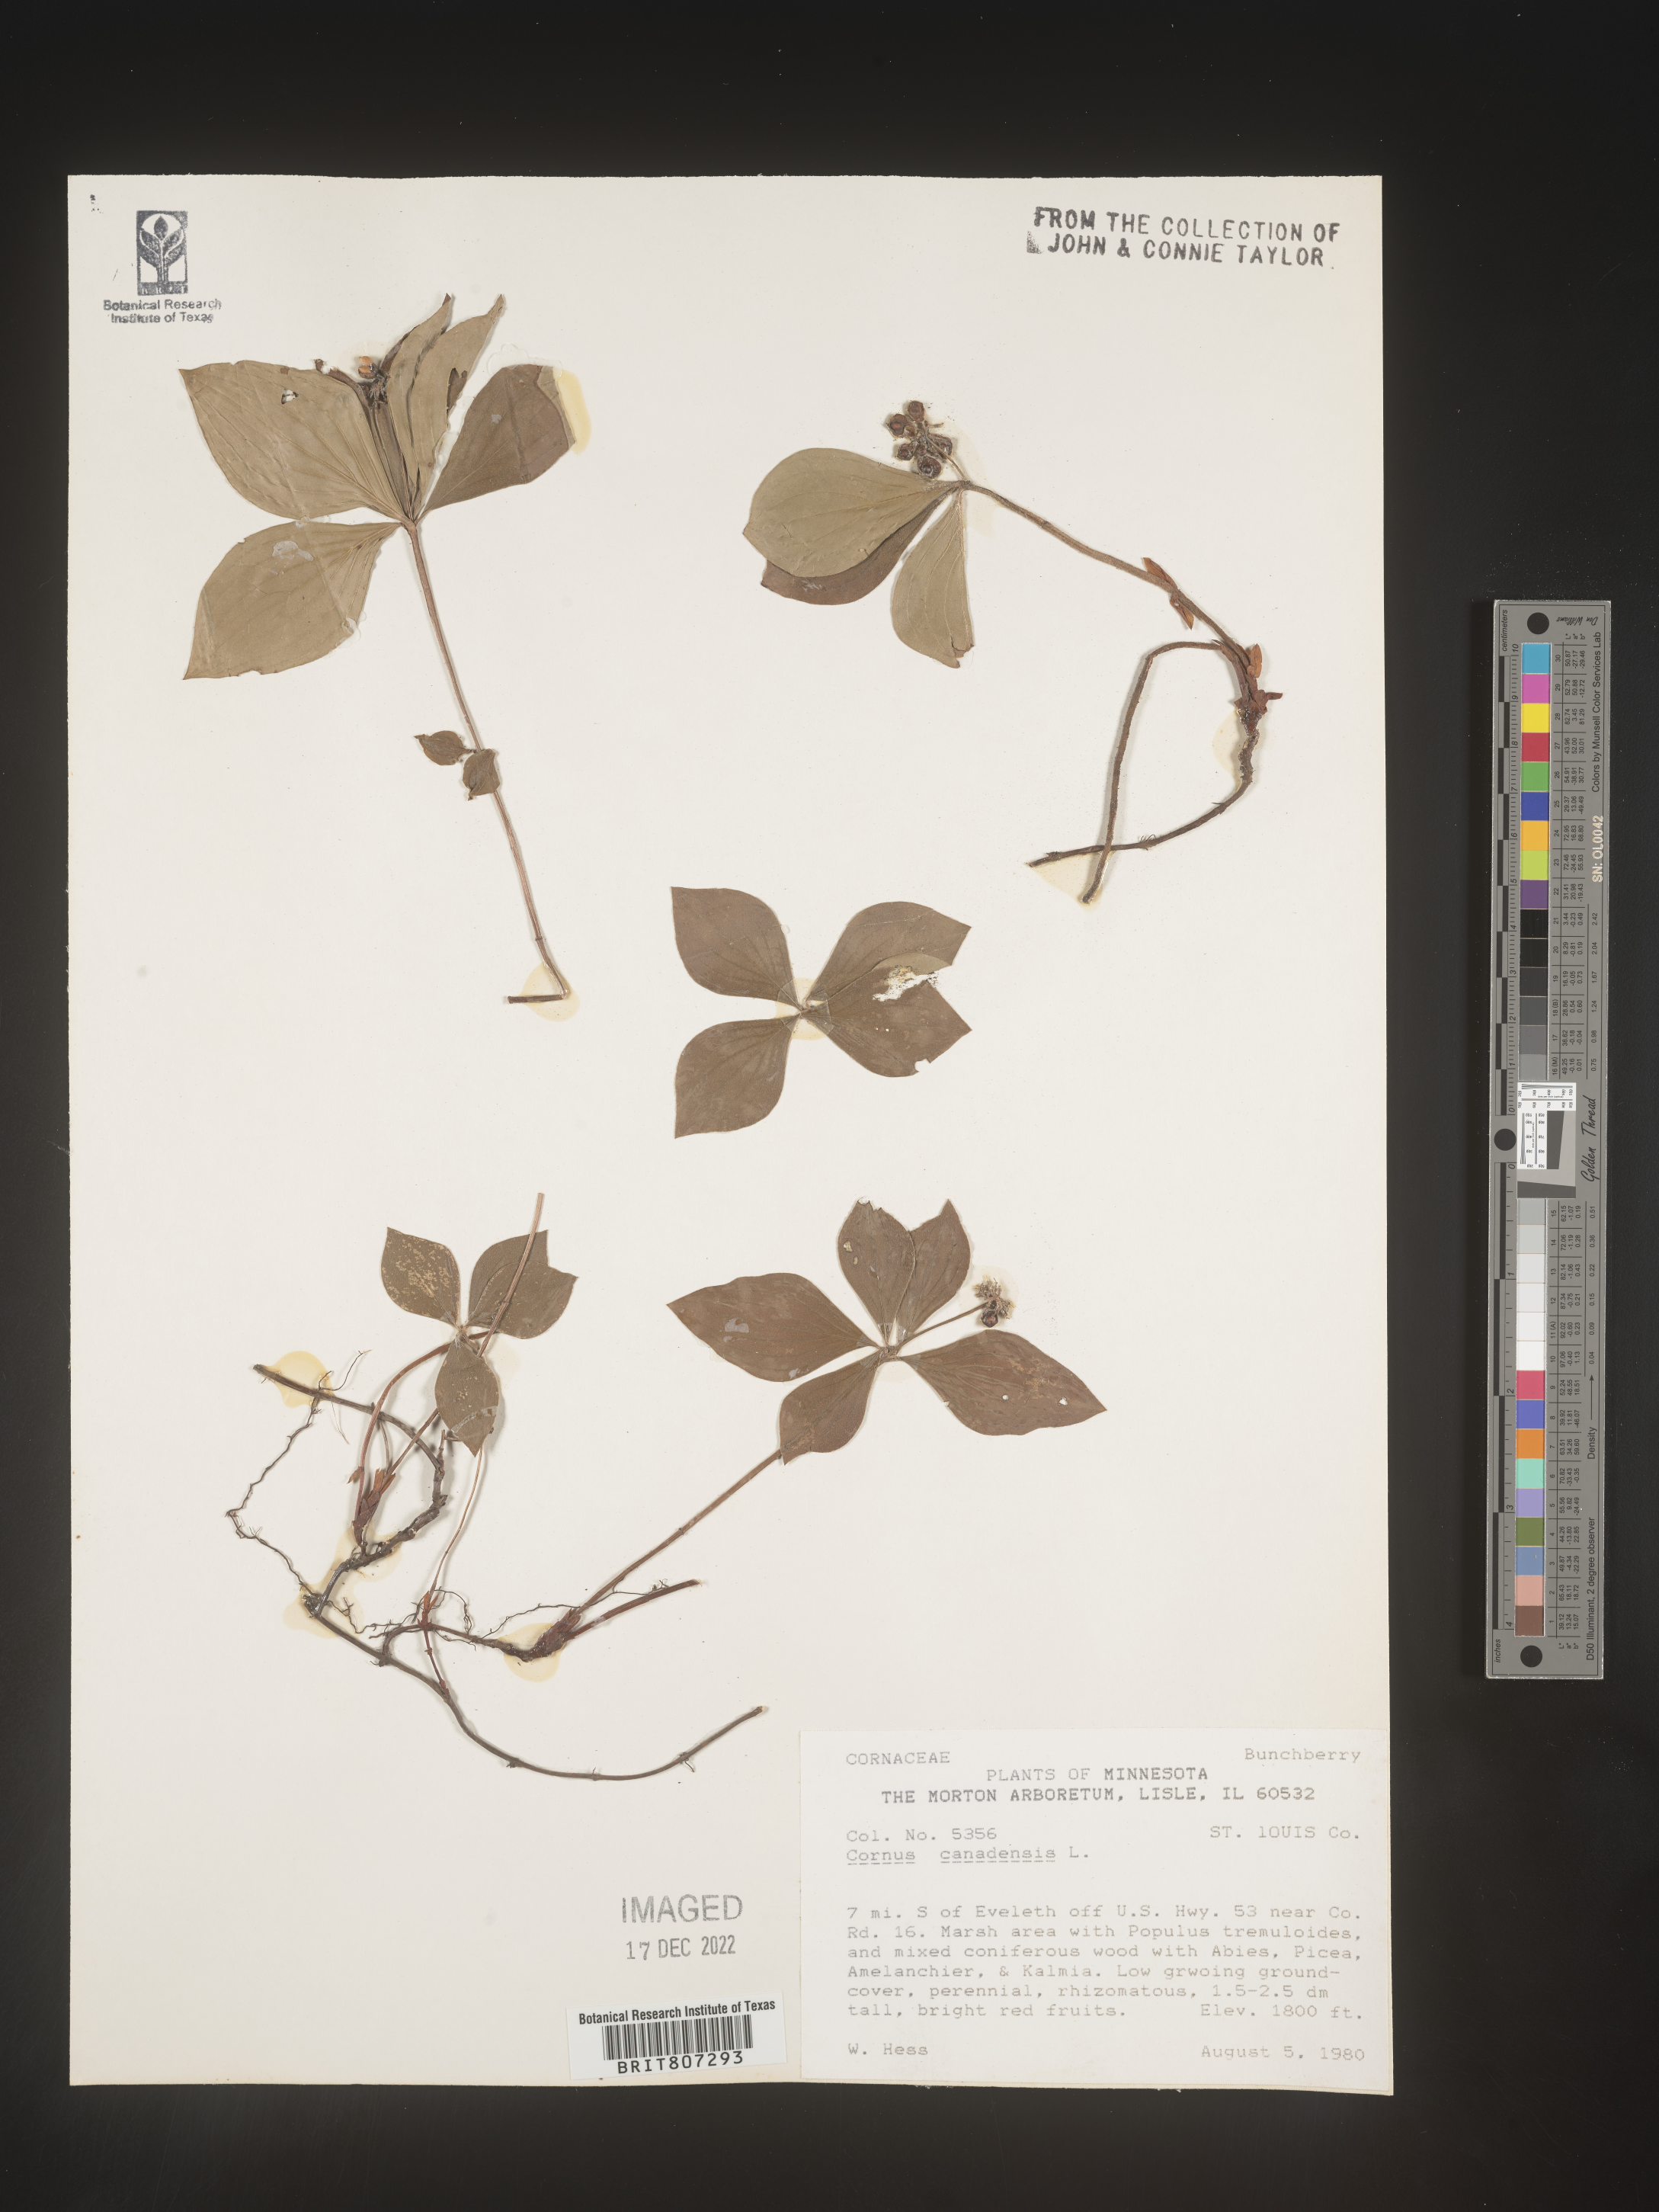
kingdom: Plantae
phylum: Tracheophyta
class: Magnoliopsida
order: Cornales
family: Cornaceae
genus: Cornus
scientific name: Cornus canadensis
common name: Creeping dogwood
